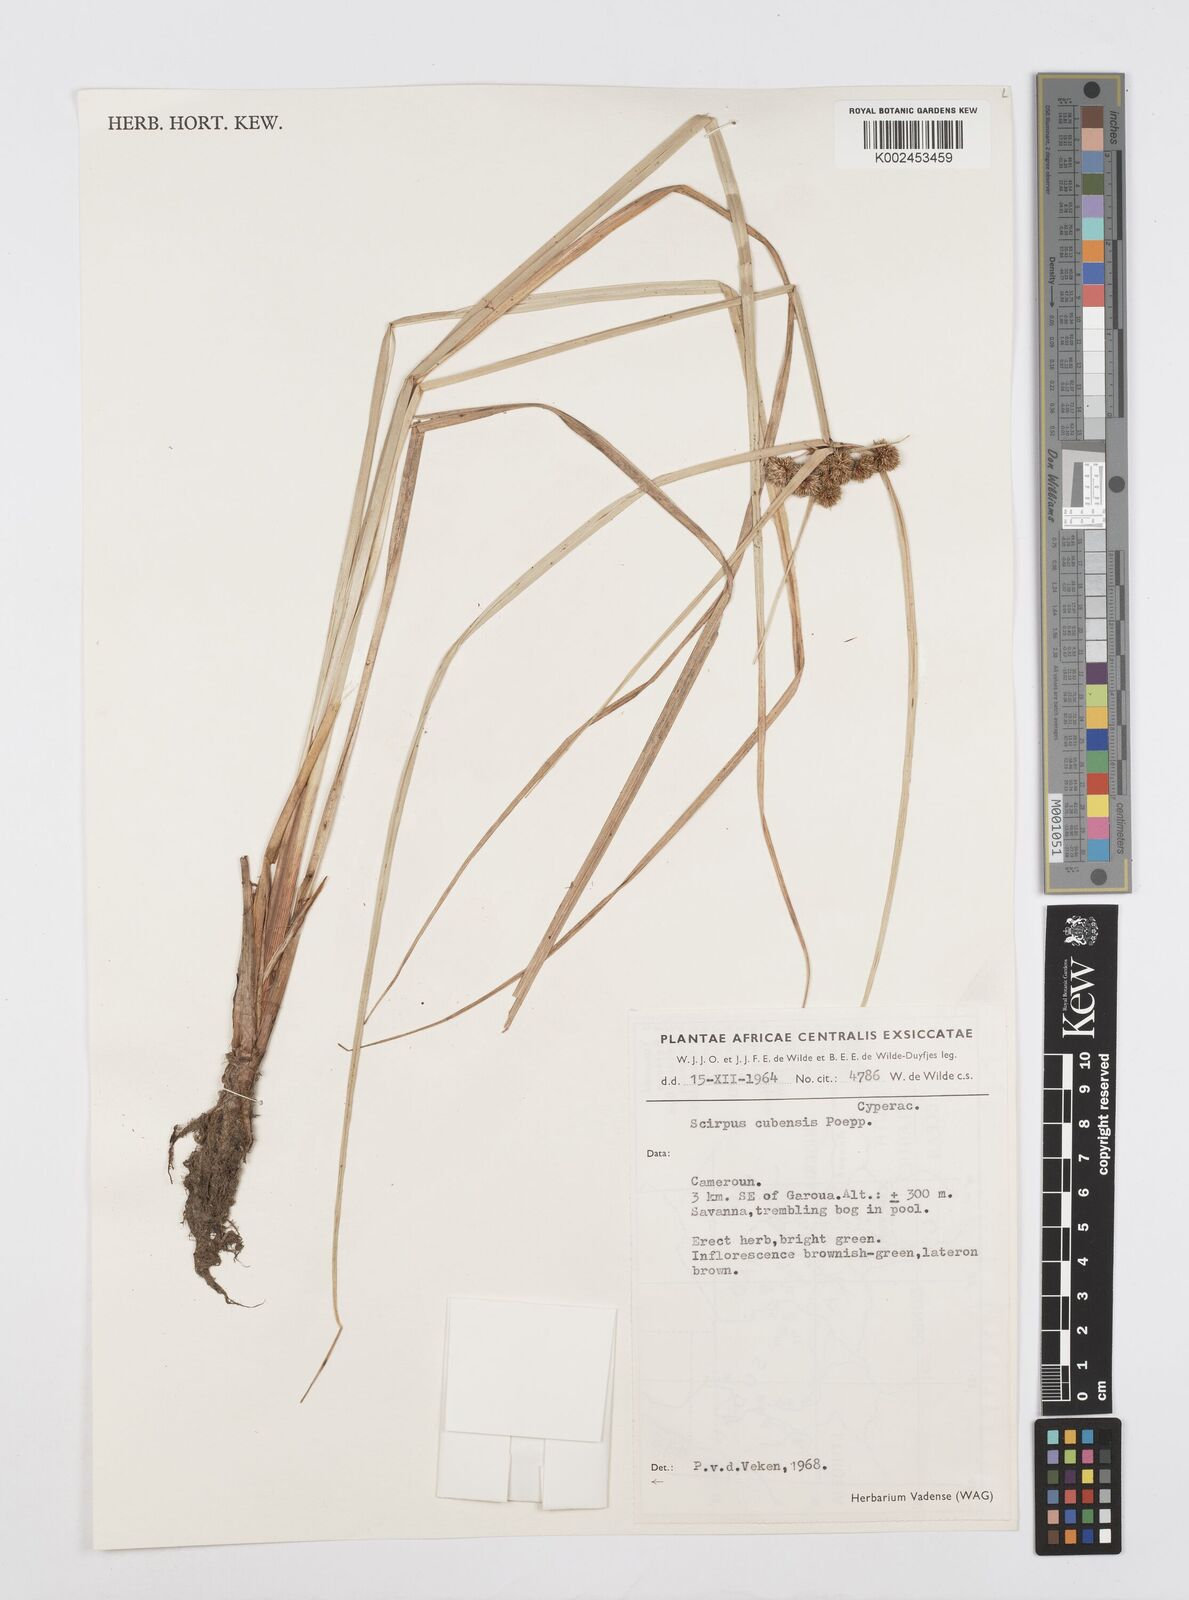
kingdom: Plantae
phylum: Tracheophyta
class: Liliopsida
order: Poales
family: Cyperaceae
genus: Cyperus
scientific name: Cyperus elegans
